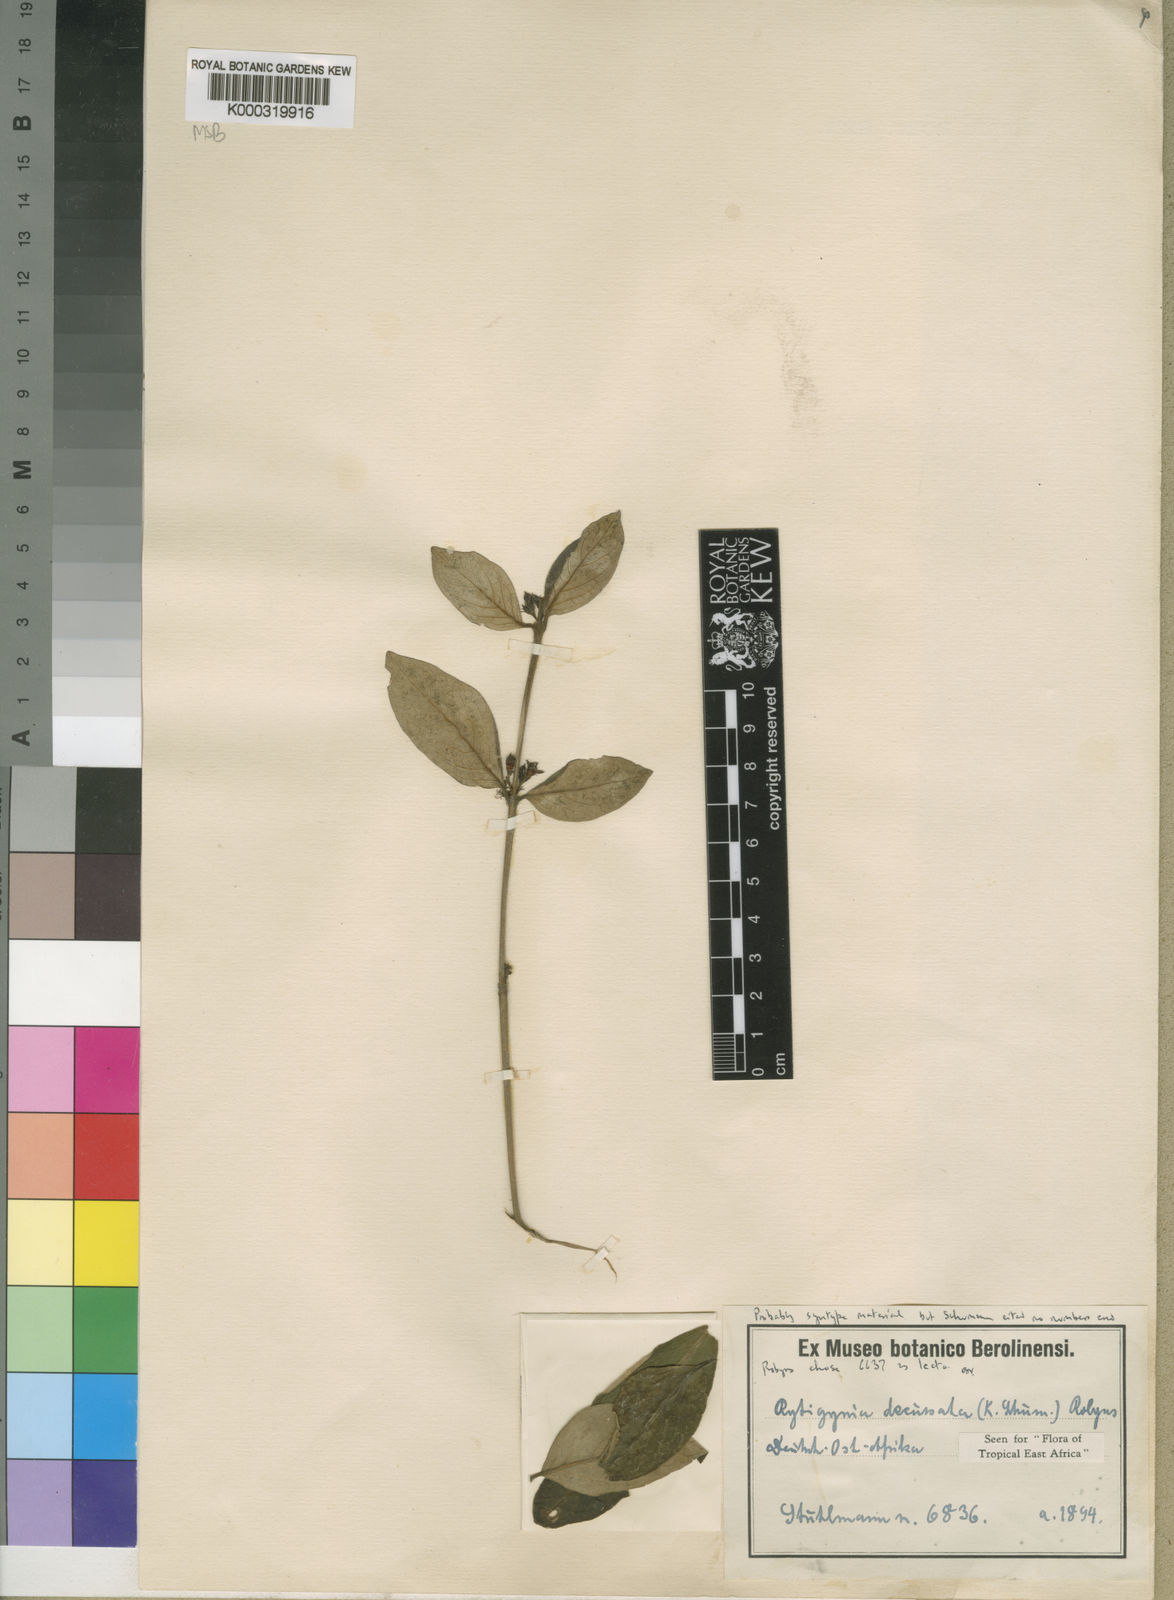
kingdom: Plantae
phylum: Tracheophyta
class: Magnoliopsida
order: Gentianales
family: Rubiaceae
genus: Rytigynia
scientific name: Rytigynia decussata
